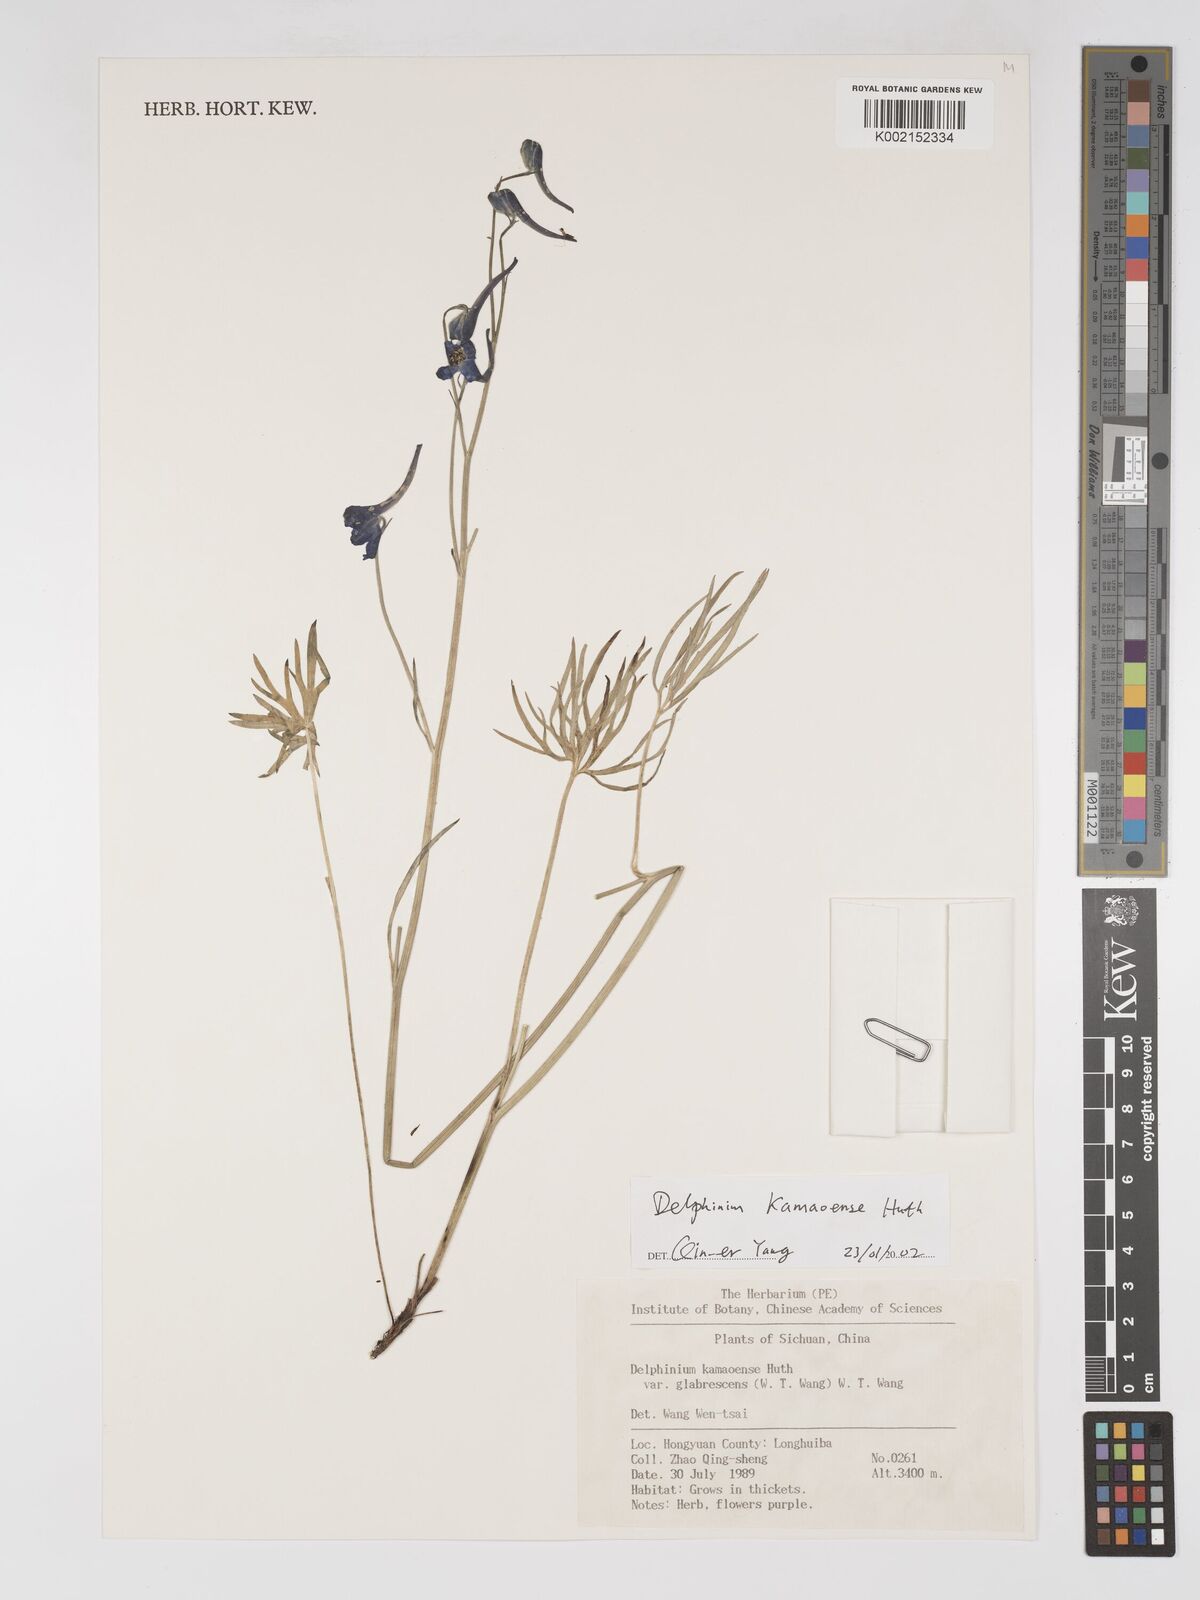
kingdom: Plantae
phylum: Tracheophyta
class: Magnoliopsida
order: Ranunculales
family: Ranunculaceae
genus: Delphinium
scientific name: Delphinium kamaonense
